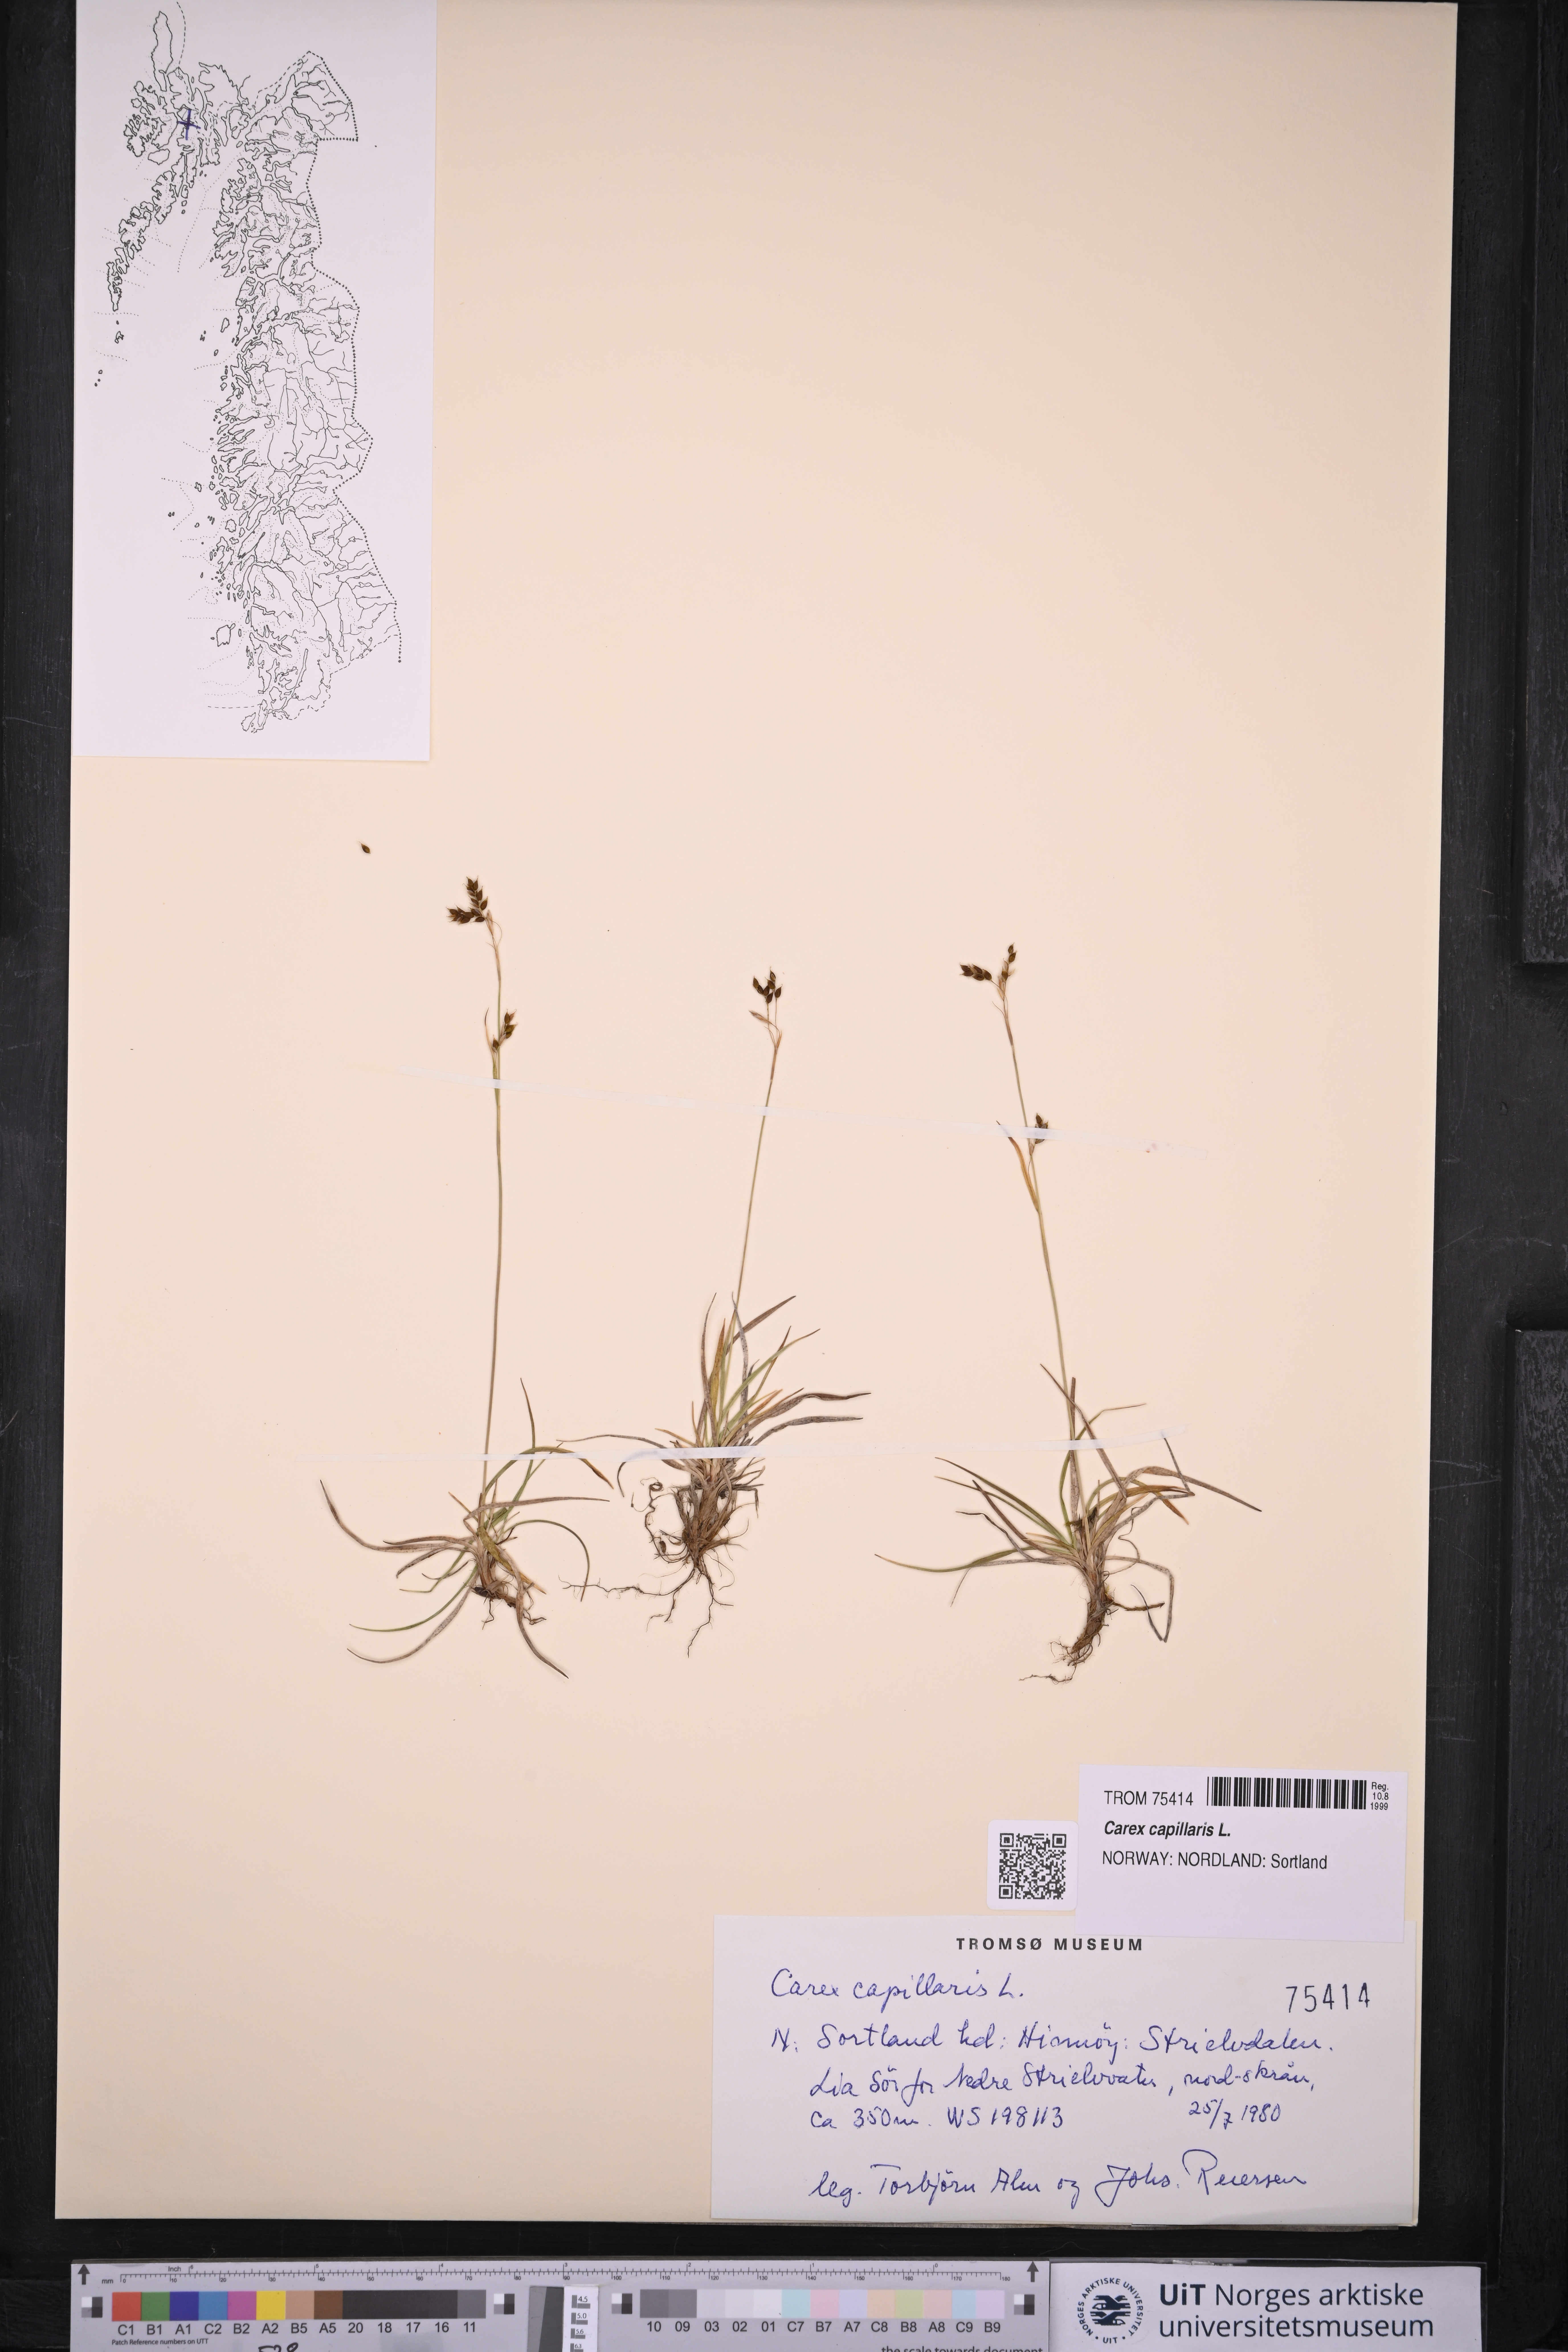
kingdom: Plantae
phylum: Tracheophyta
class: Liliopsida
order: Poales
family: Cyperaceae
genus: Carex
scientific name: Carex capillaris
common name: Hair sedge
